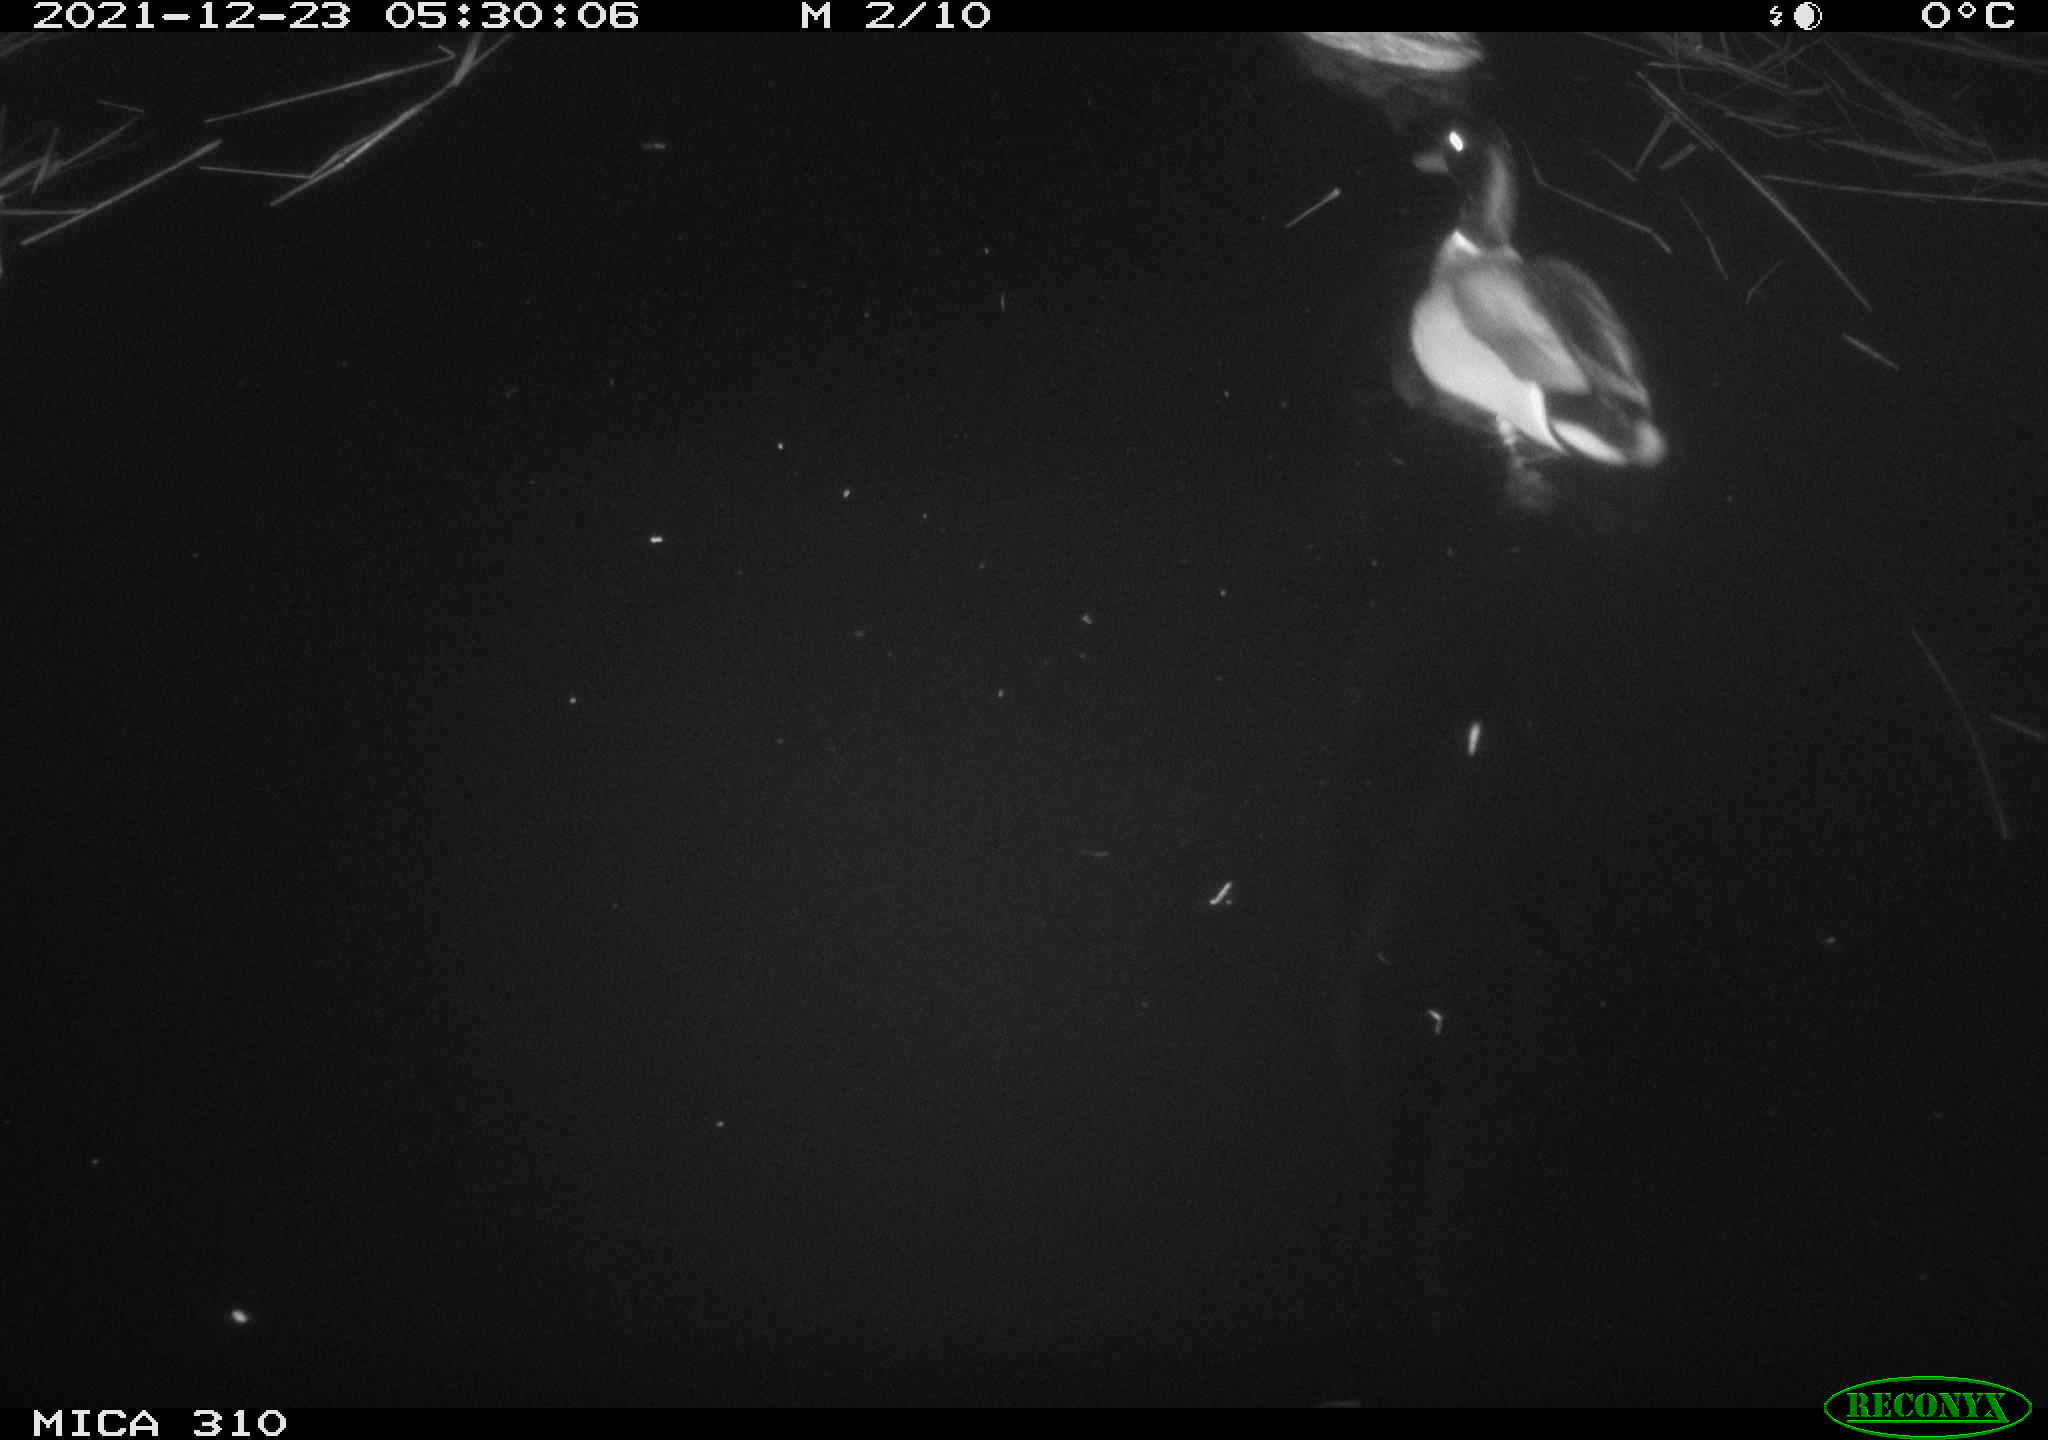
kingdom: Animalia
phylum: Chordata
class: Aves
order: Anseriformes
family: Anatidae
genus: Anas
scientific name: Anas platyrhynchos
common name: Mallard
